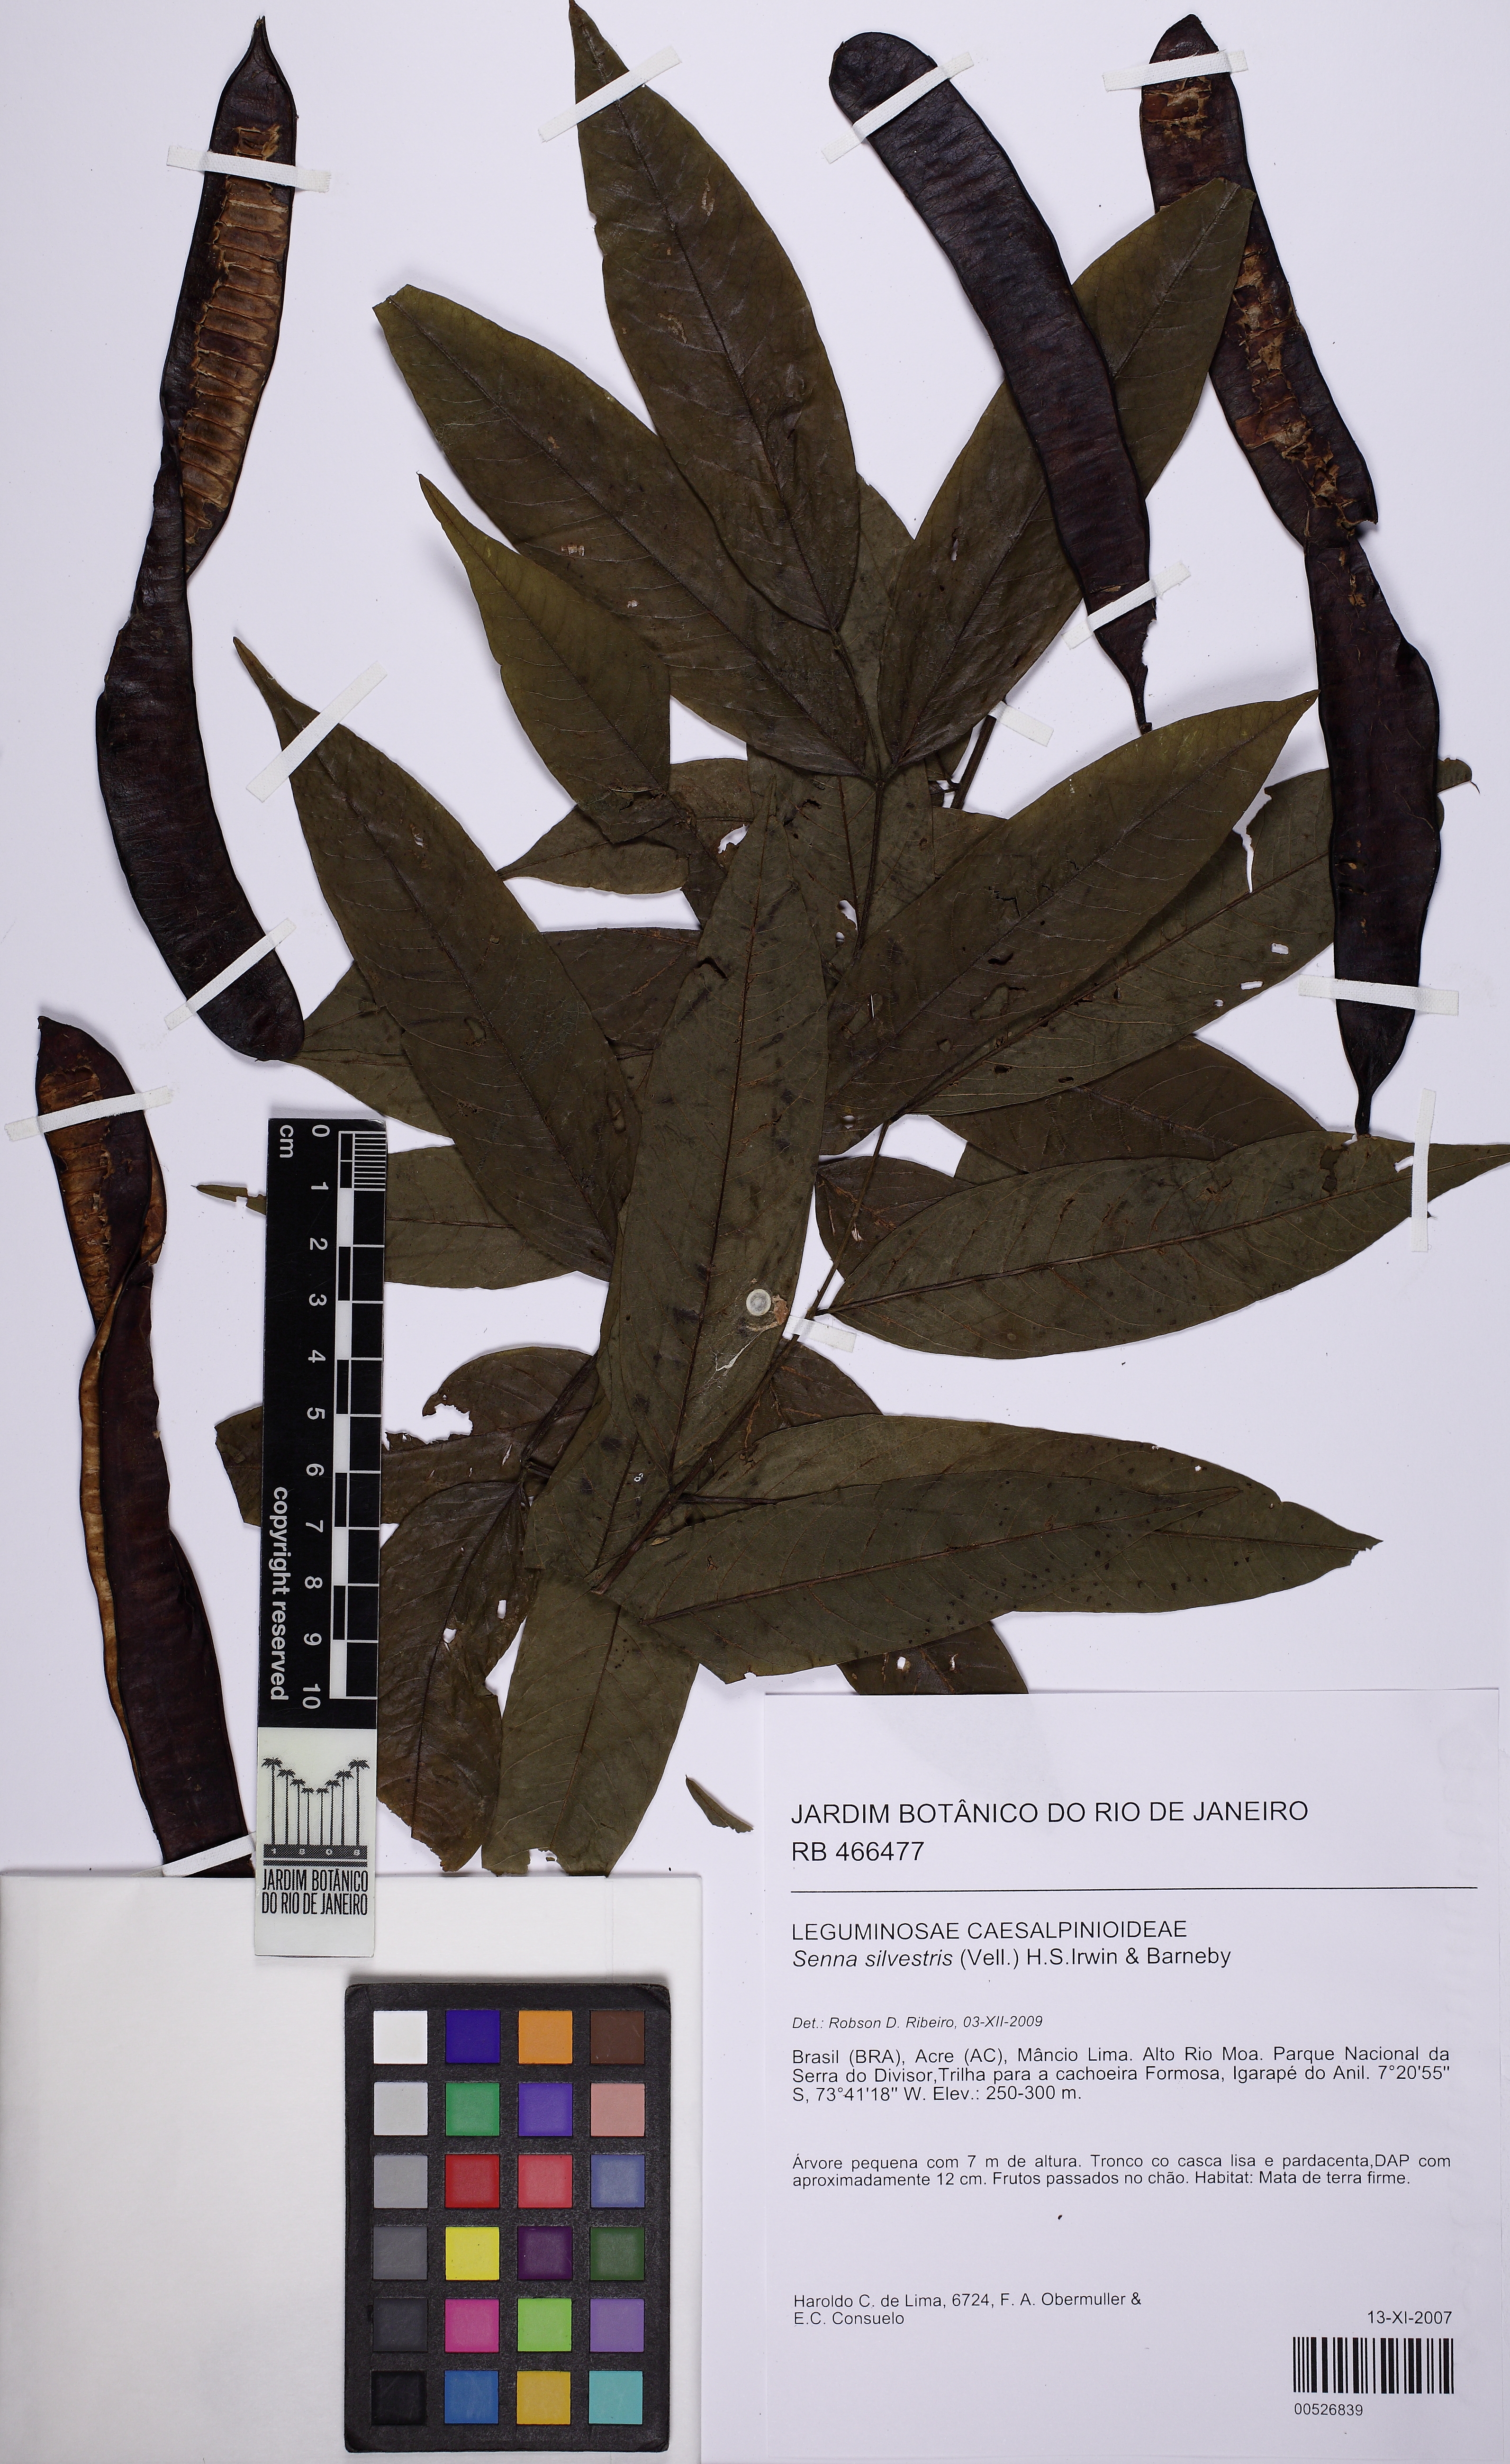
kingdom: Plantae
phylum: Tracheophyta
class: Magnoliopsida
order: Fabales
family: Fabaceae
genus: Senna
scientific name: Senna silvestris
